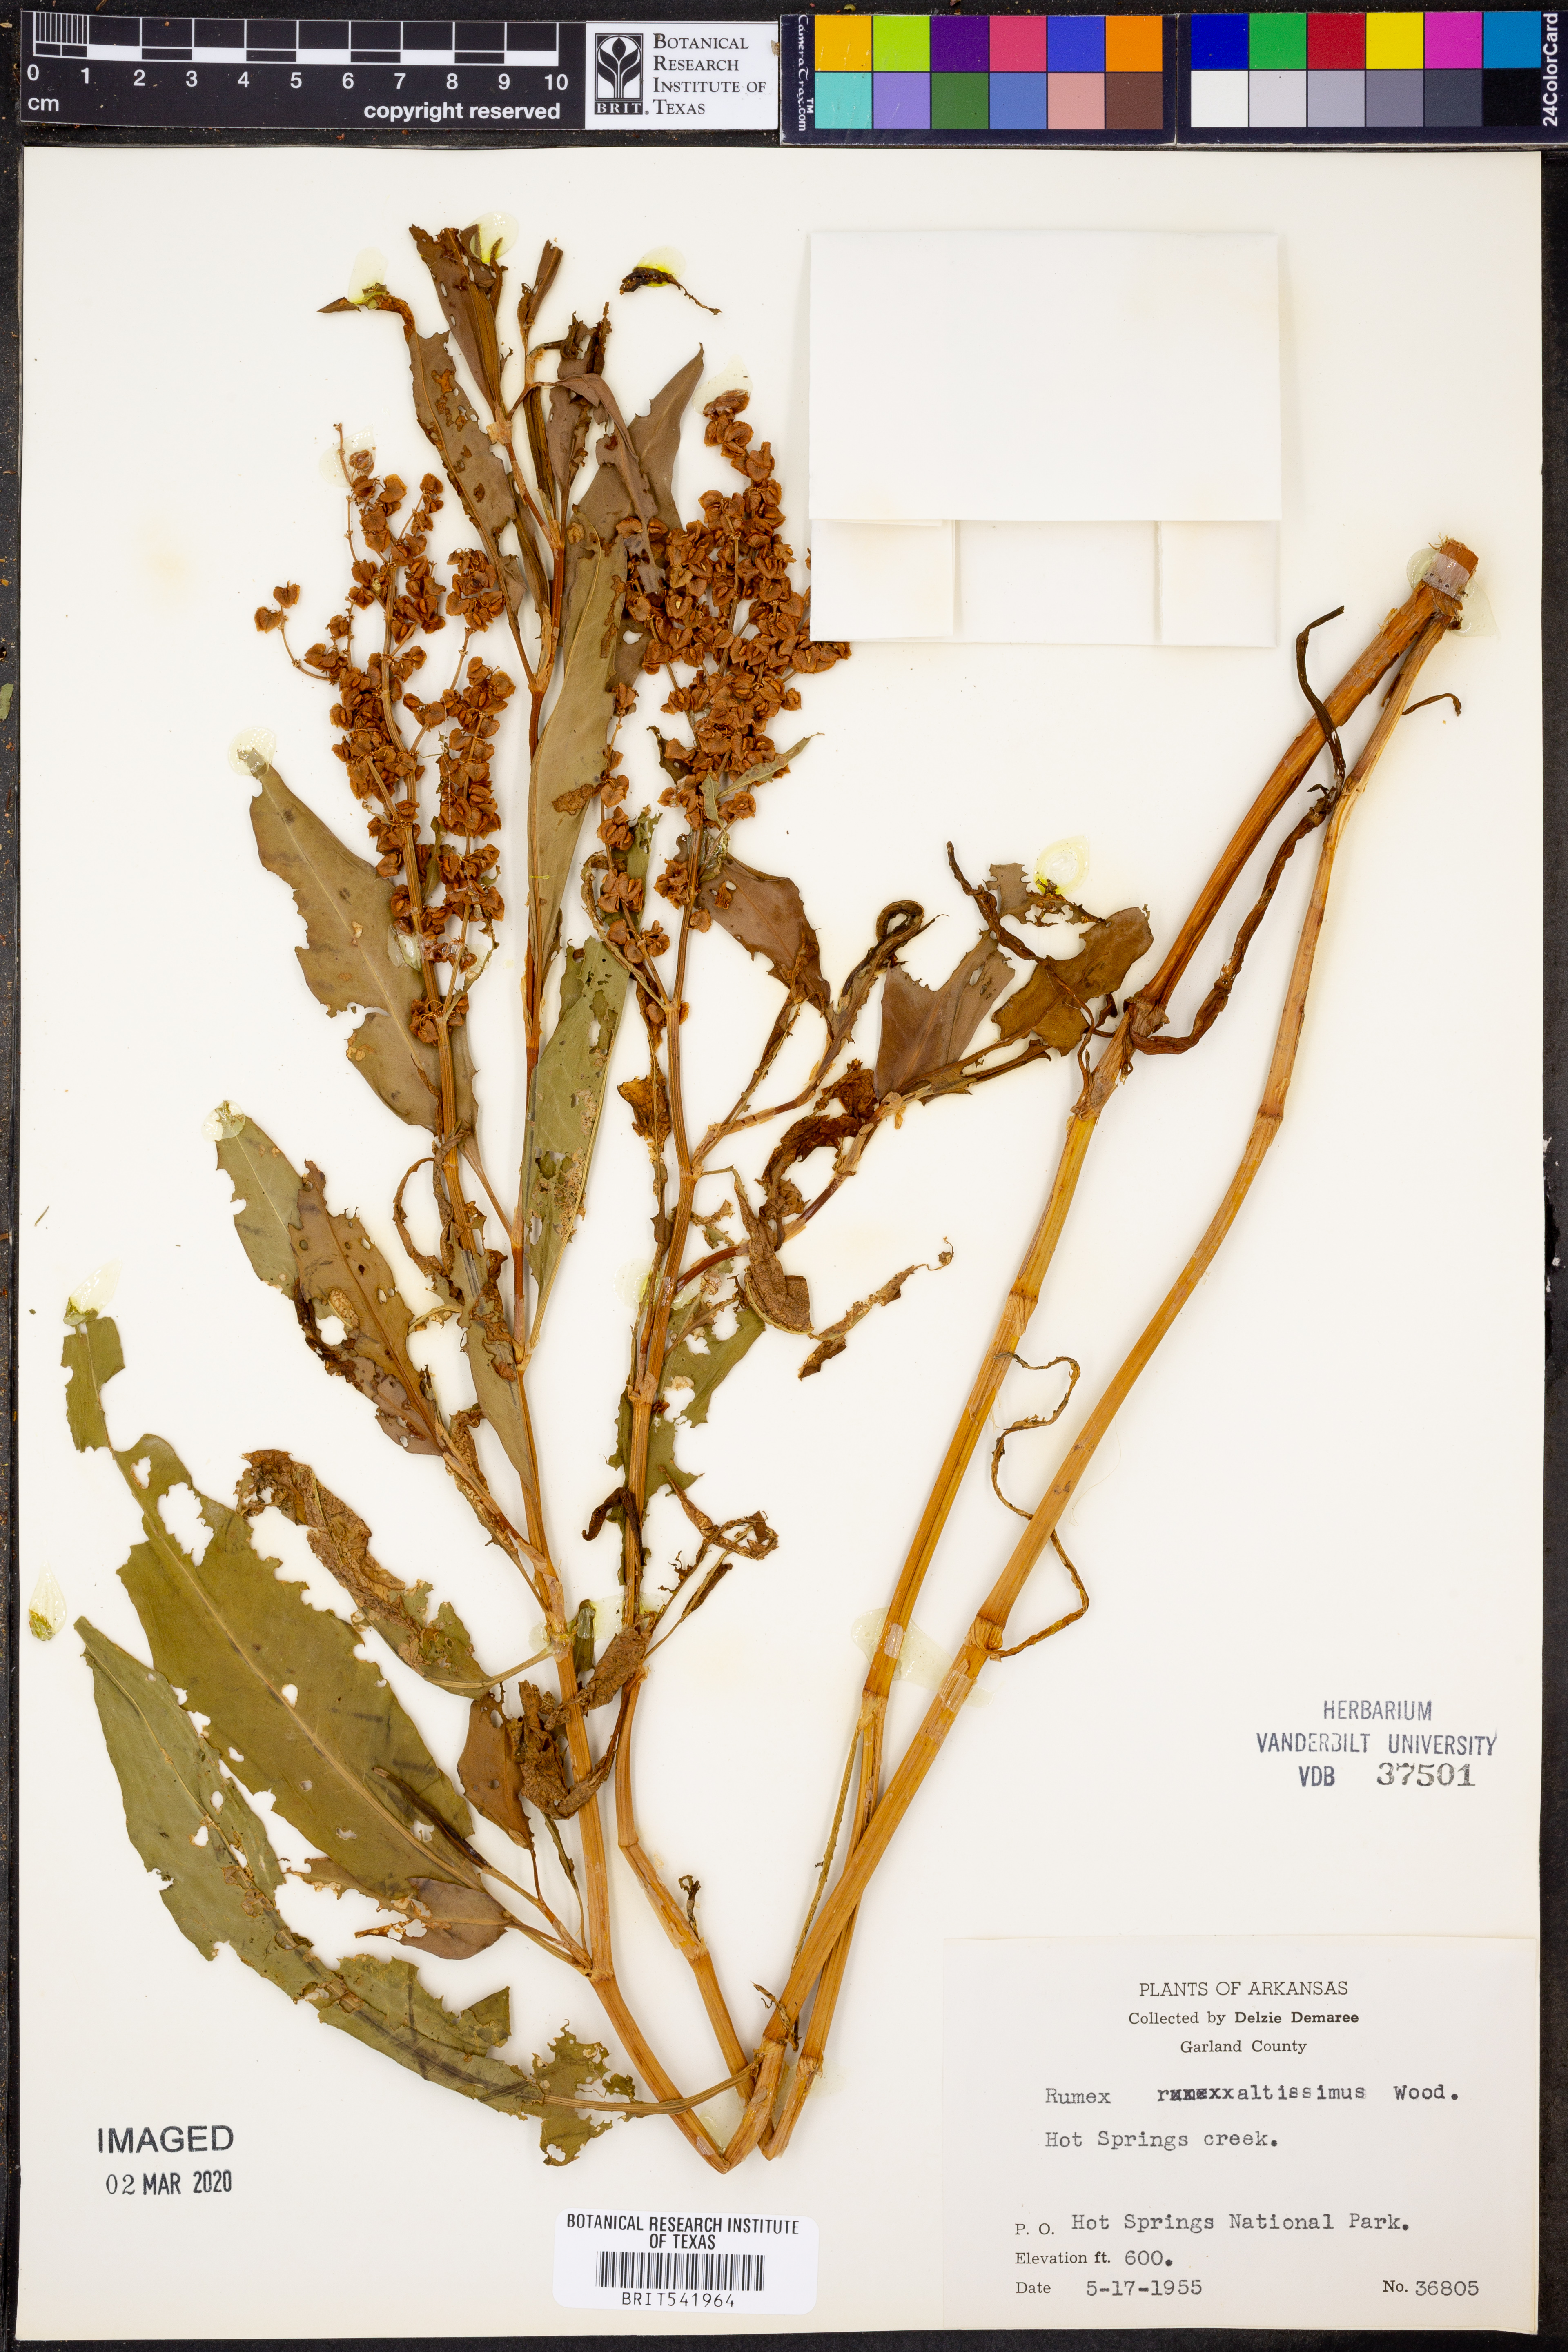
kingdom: Plantae
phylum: Tracheophyta
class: Magnoliopsida
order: Caryophyllales
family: Polygonaceae
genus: Rumex
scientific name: Rumex altissimus
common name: Smooth dock
